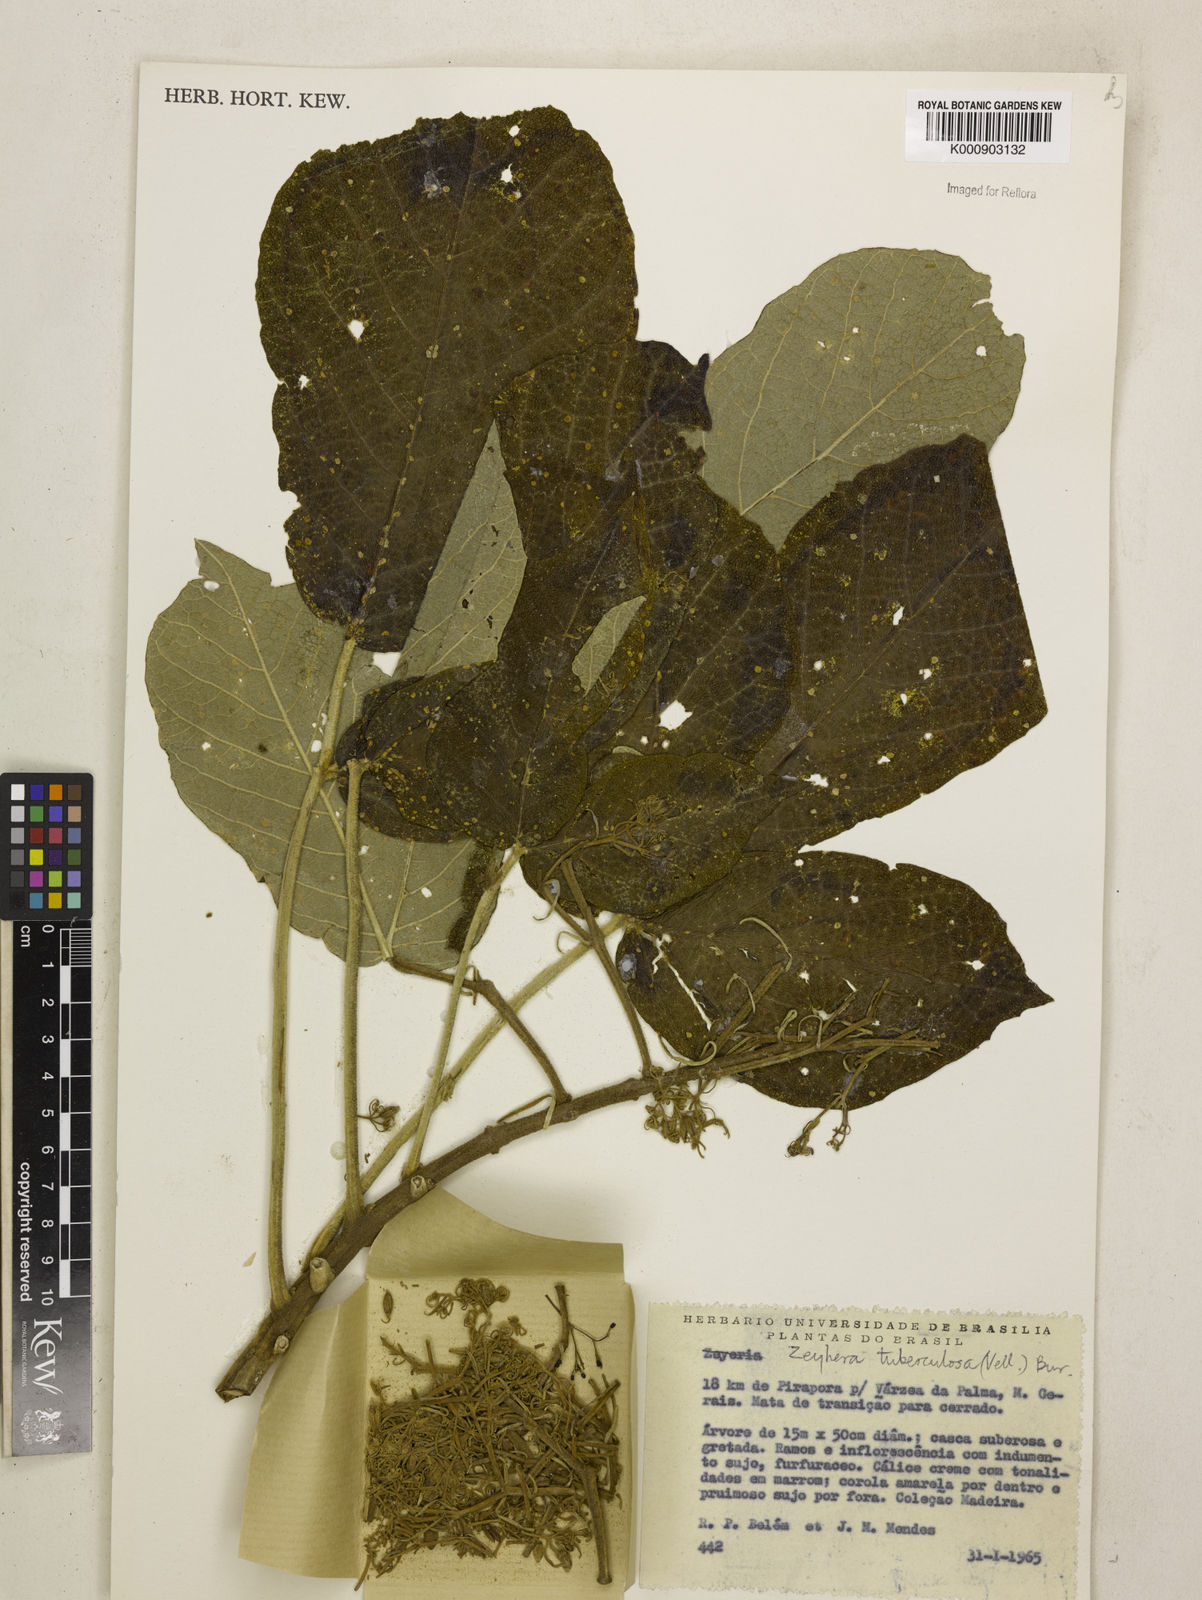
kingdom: Plantae
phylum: Tracheophyta
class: Magnoliopsida
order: Lamiales
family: Bignoniaceae
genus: Zeyheria
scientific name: Zeyheria
